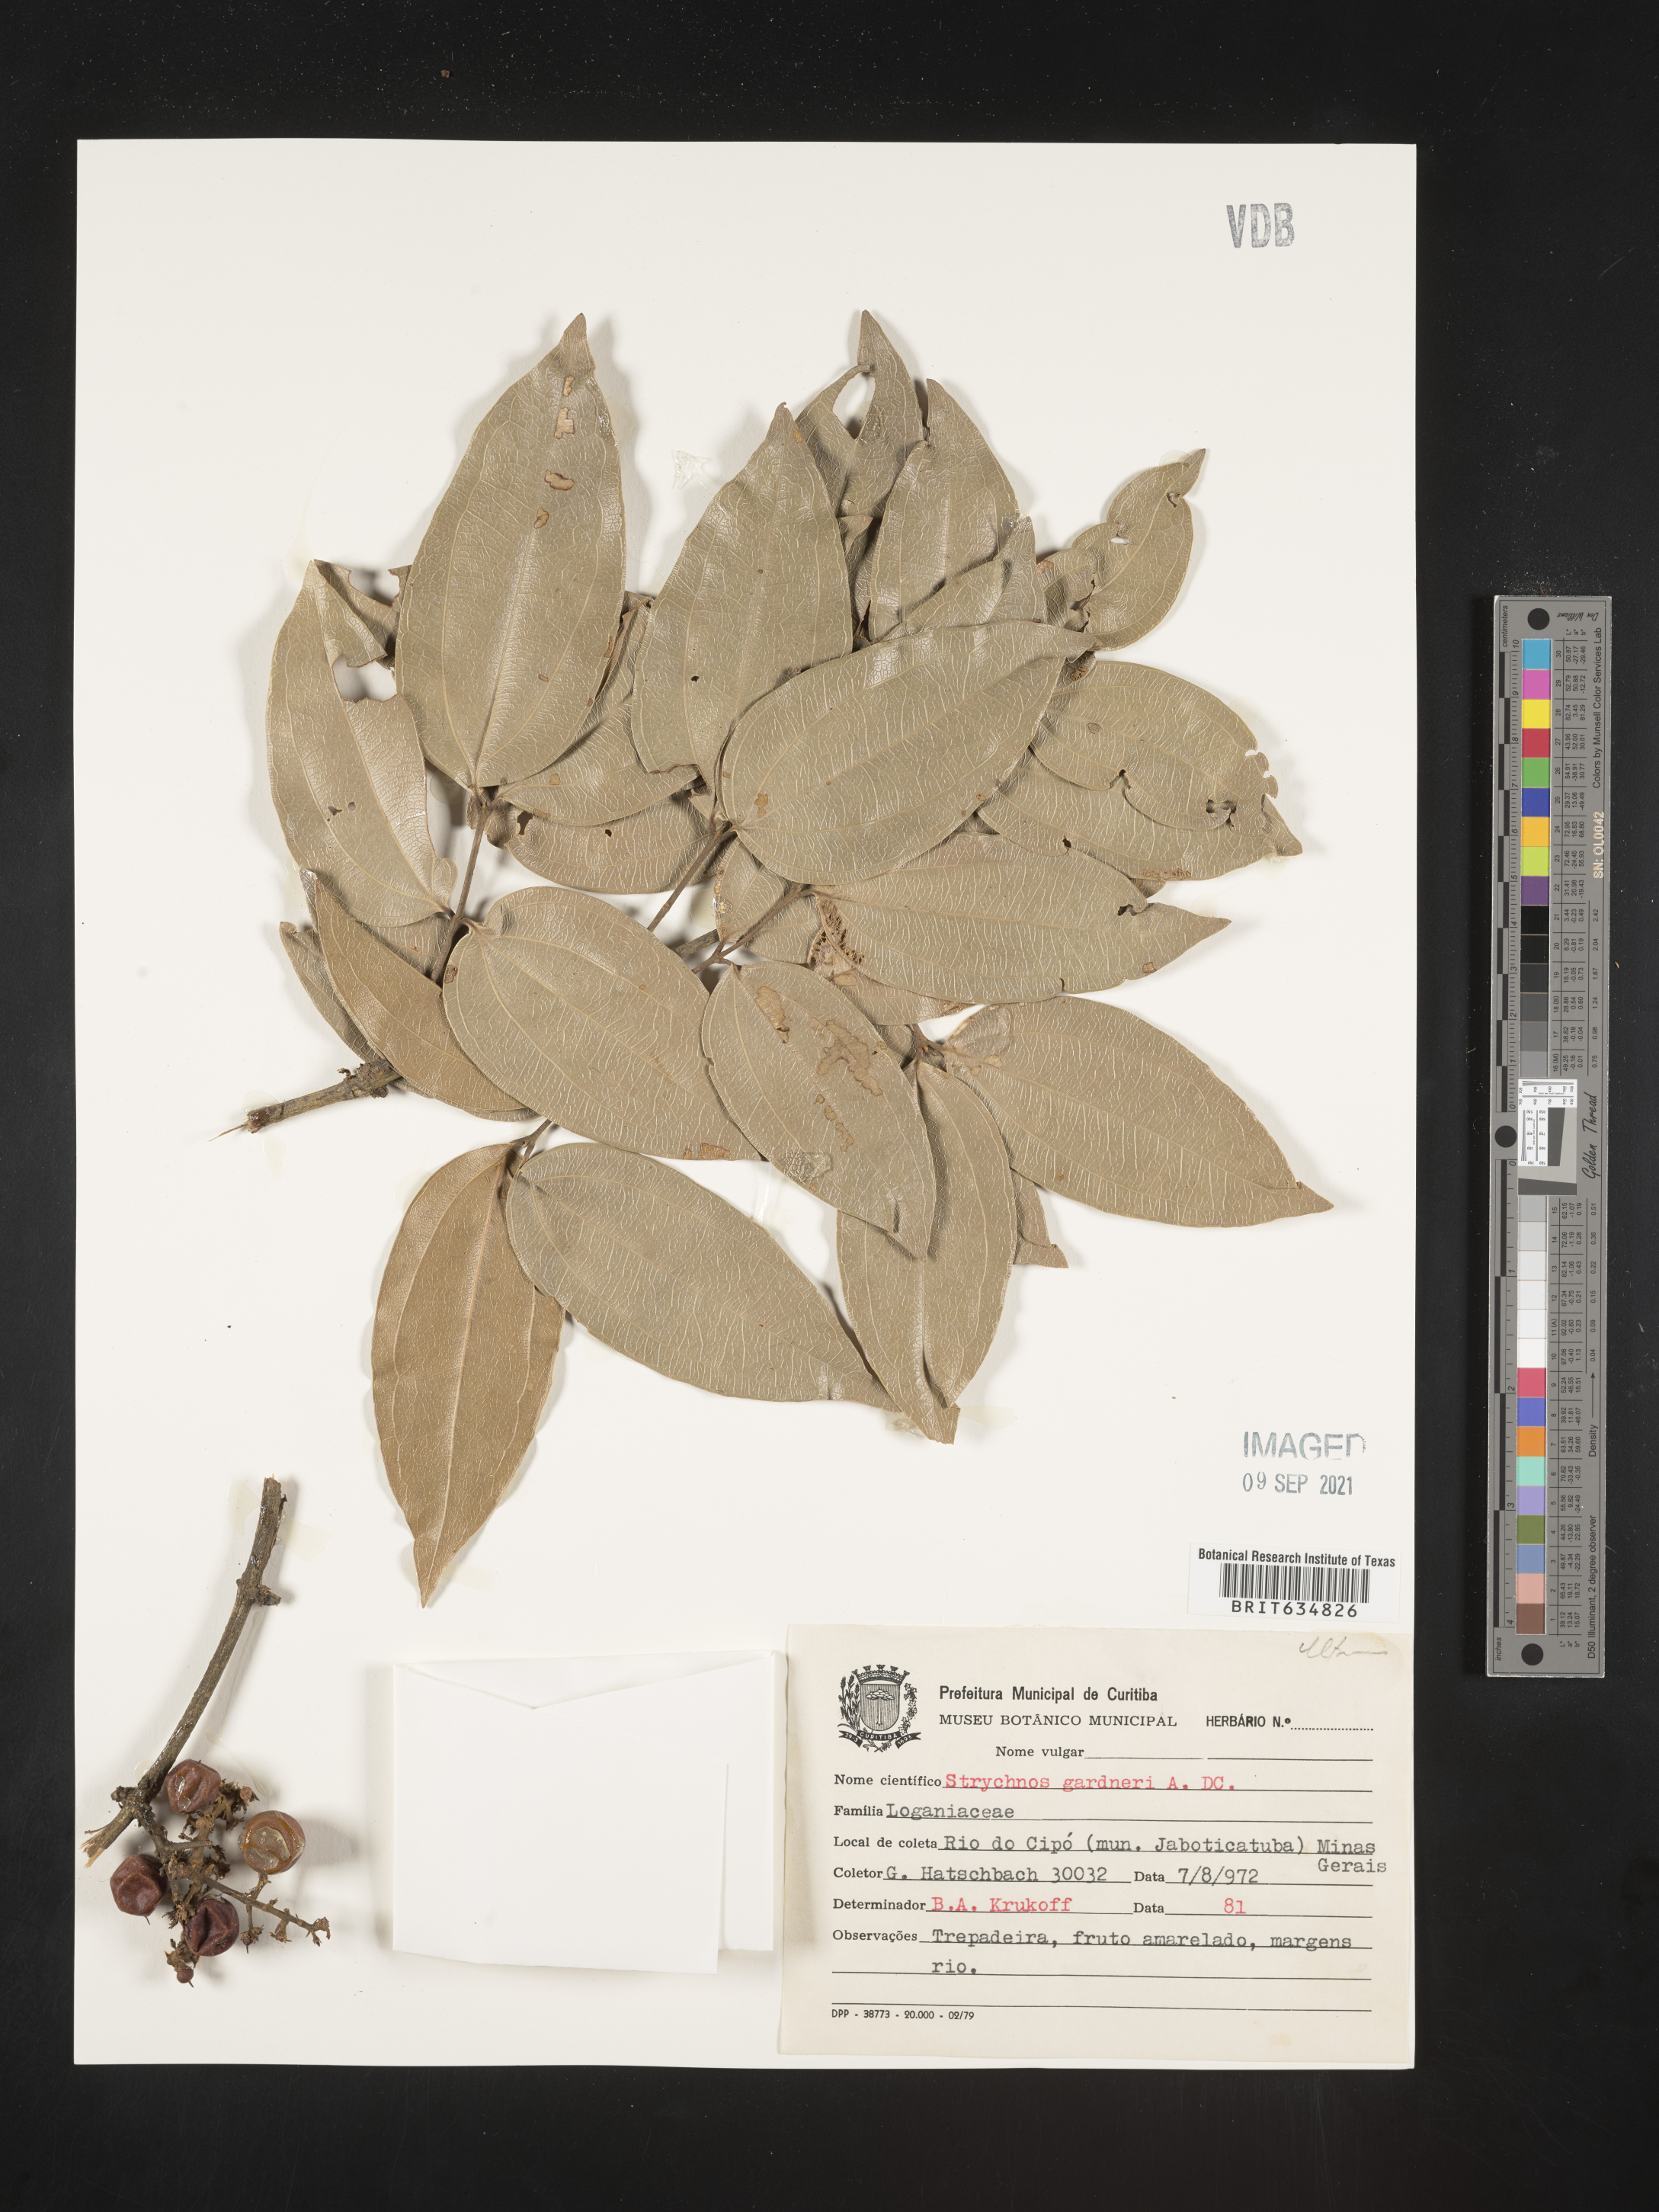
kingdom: Plantae
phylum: Tracheophyta
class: Magnoliopsida
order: Gentianales
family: Loganiaceae
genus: Strychnos
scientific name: Strychnos
